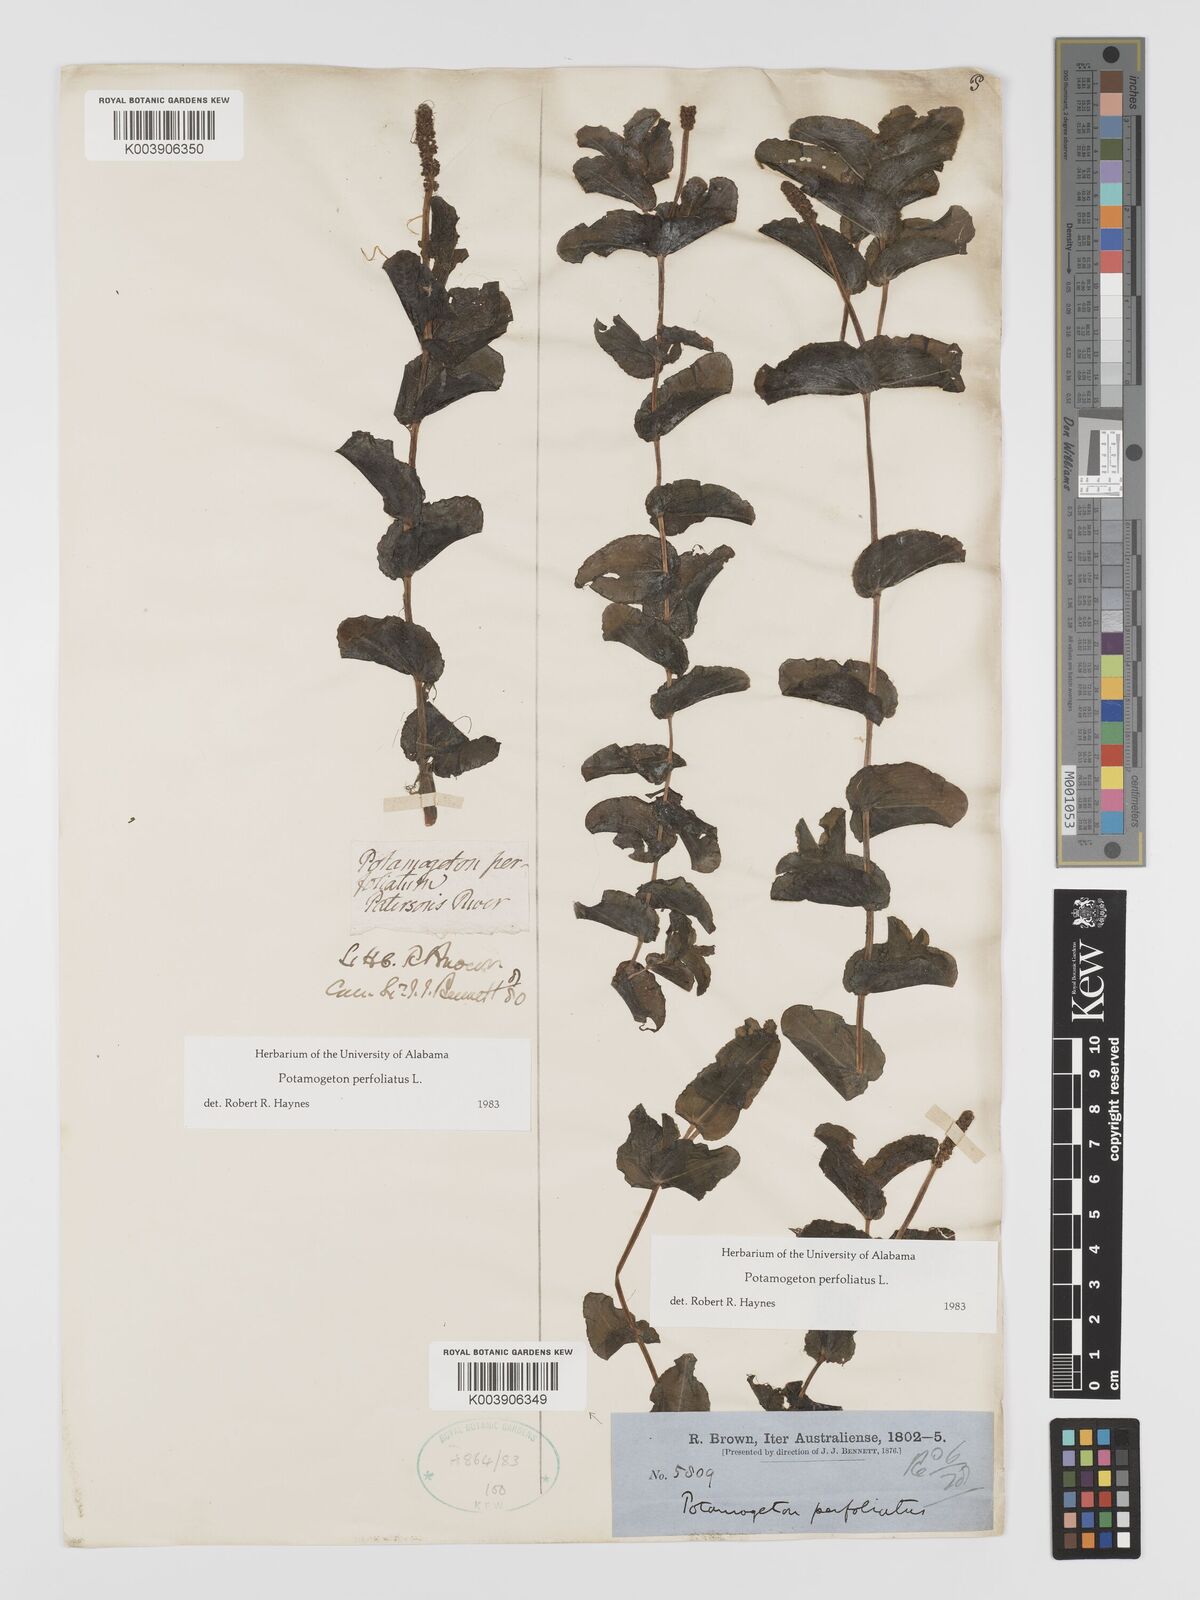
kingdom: Plantae
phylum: Tracheophyta
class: Liliopsida
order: Alismatales
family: Potamogetonaceae
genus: Potamogeton
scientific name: Potamogeton perfoliatus
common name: Perfoliate pondweed
